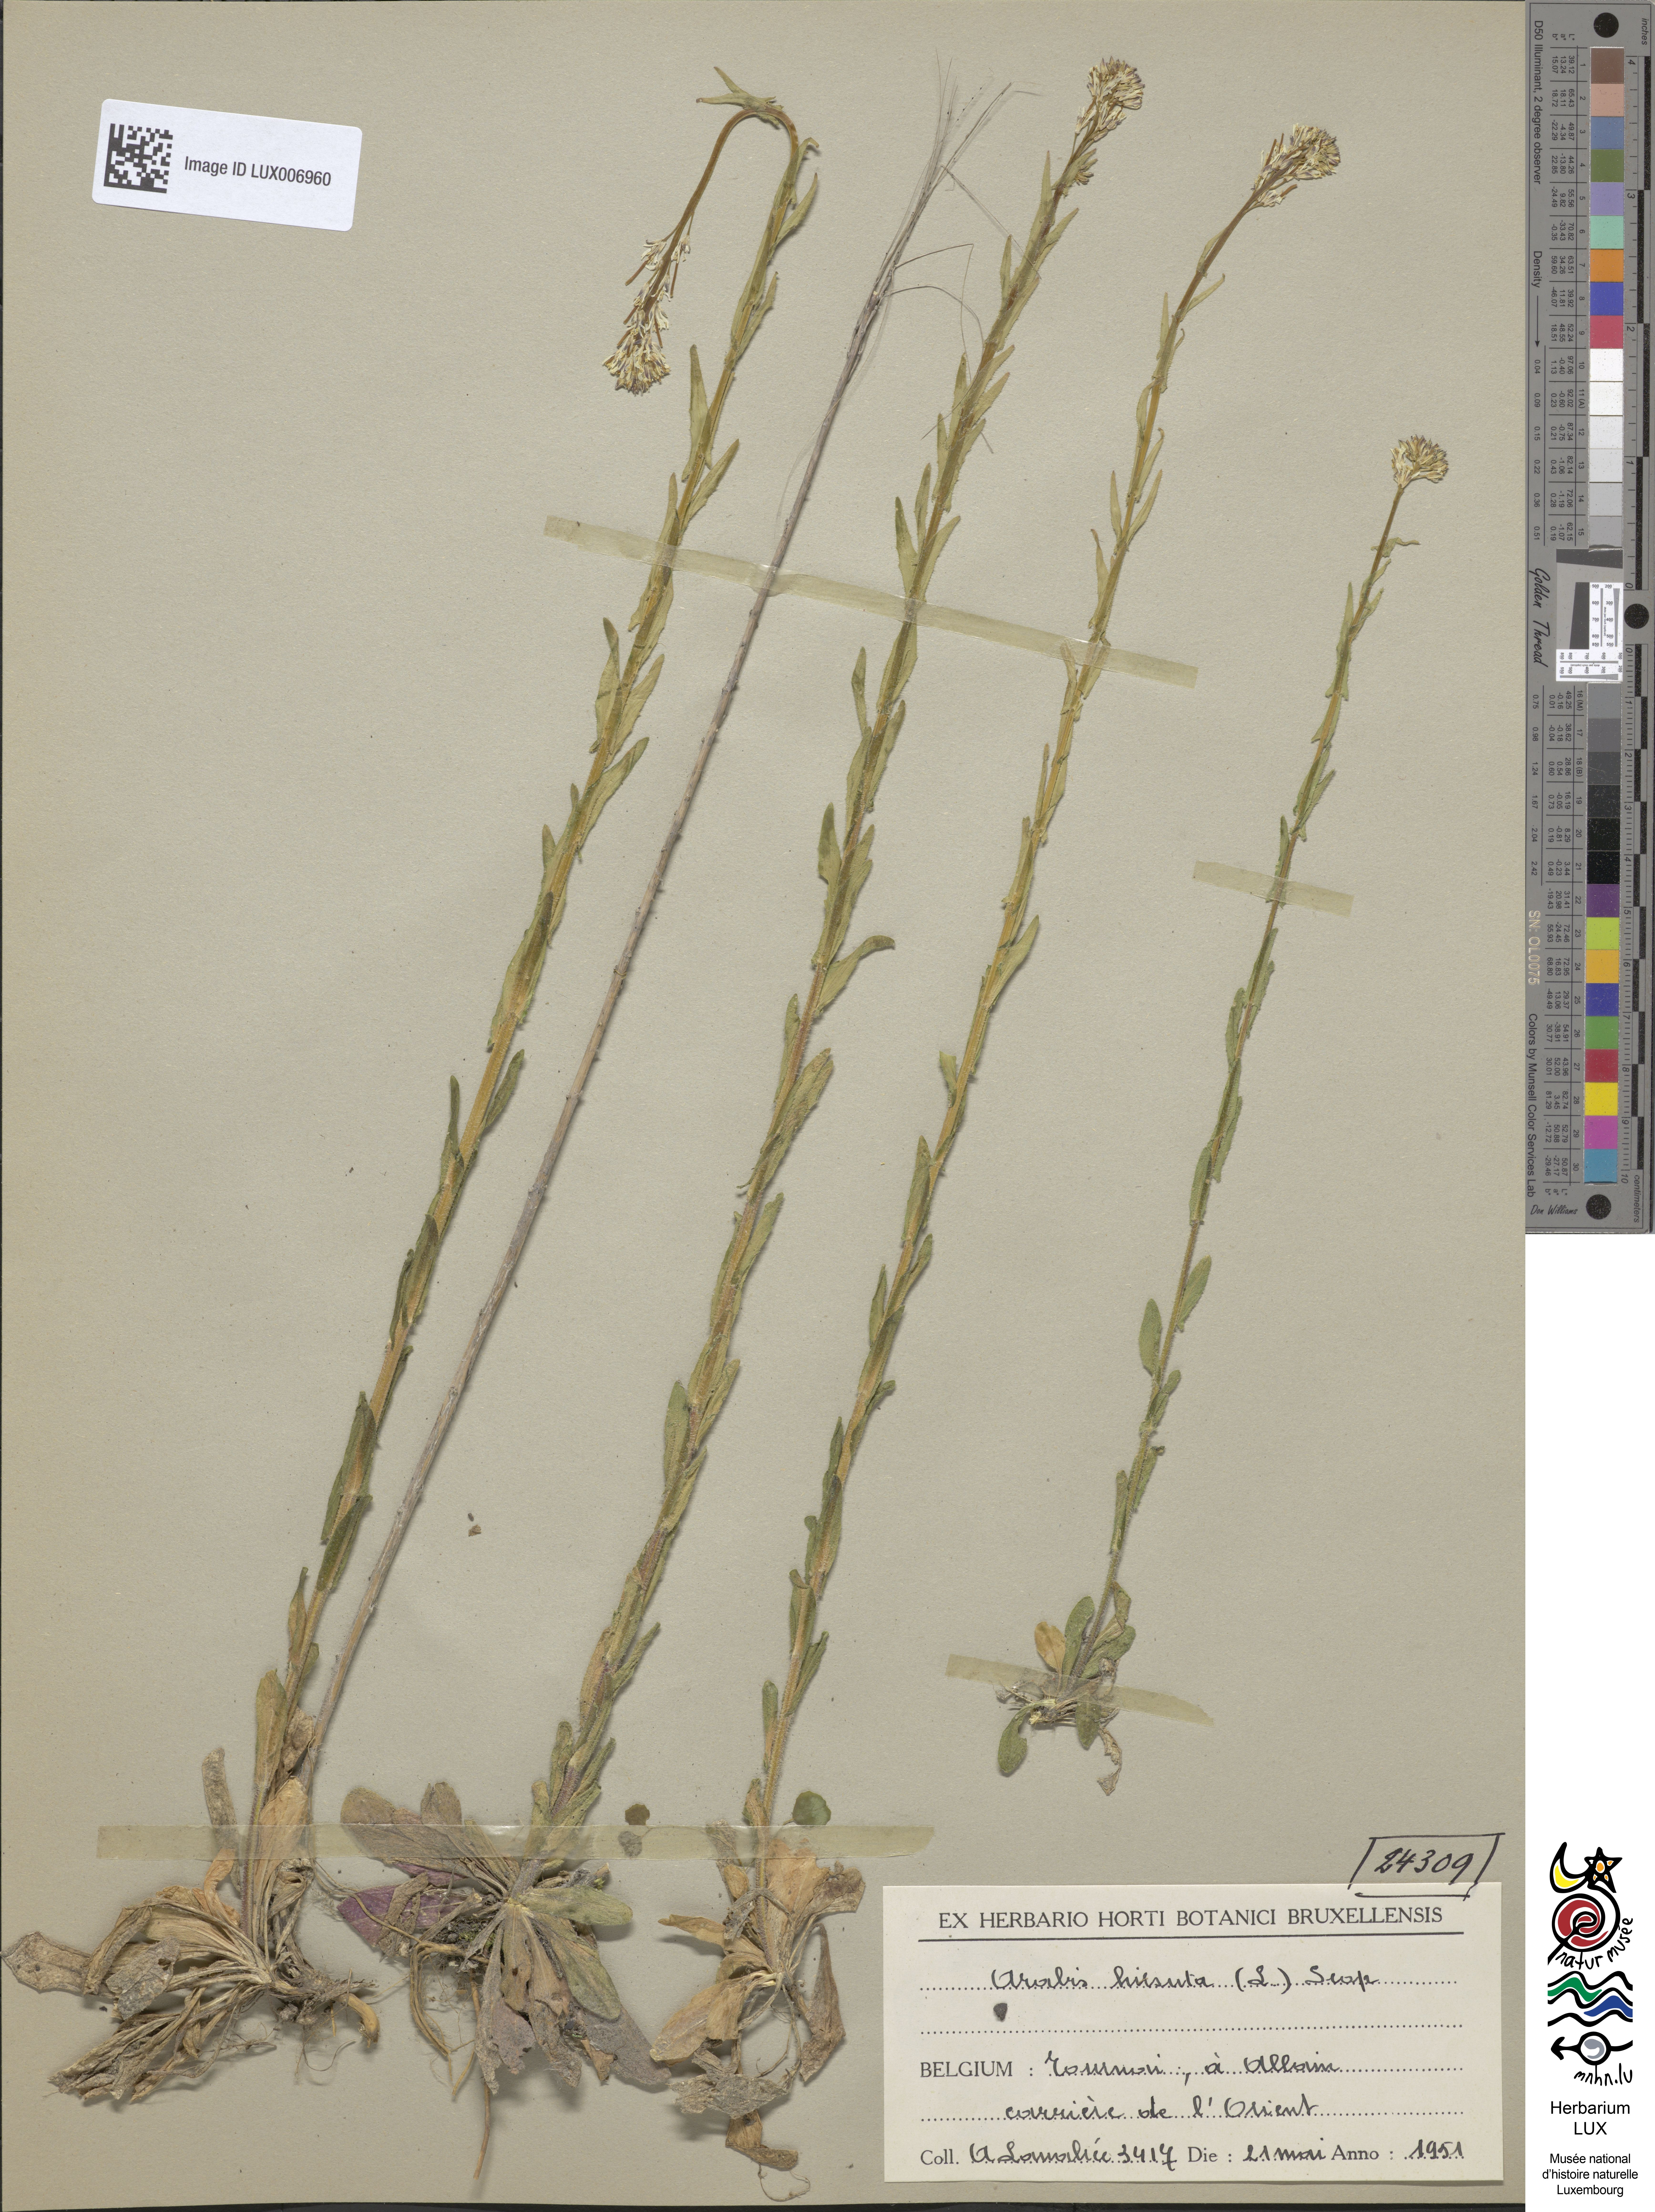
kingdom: Plantae
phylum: Tracheophyta
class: Magnoliopsida
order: Brassicales
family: Brassicaceae
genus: Arabis
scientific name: Arabis hirsuta
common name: Hairy rock-cress
